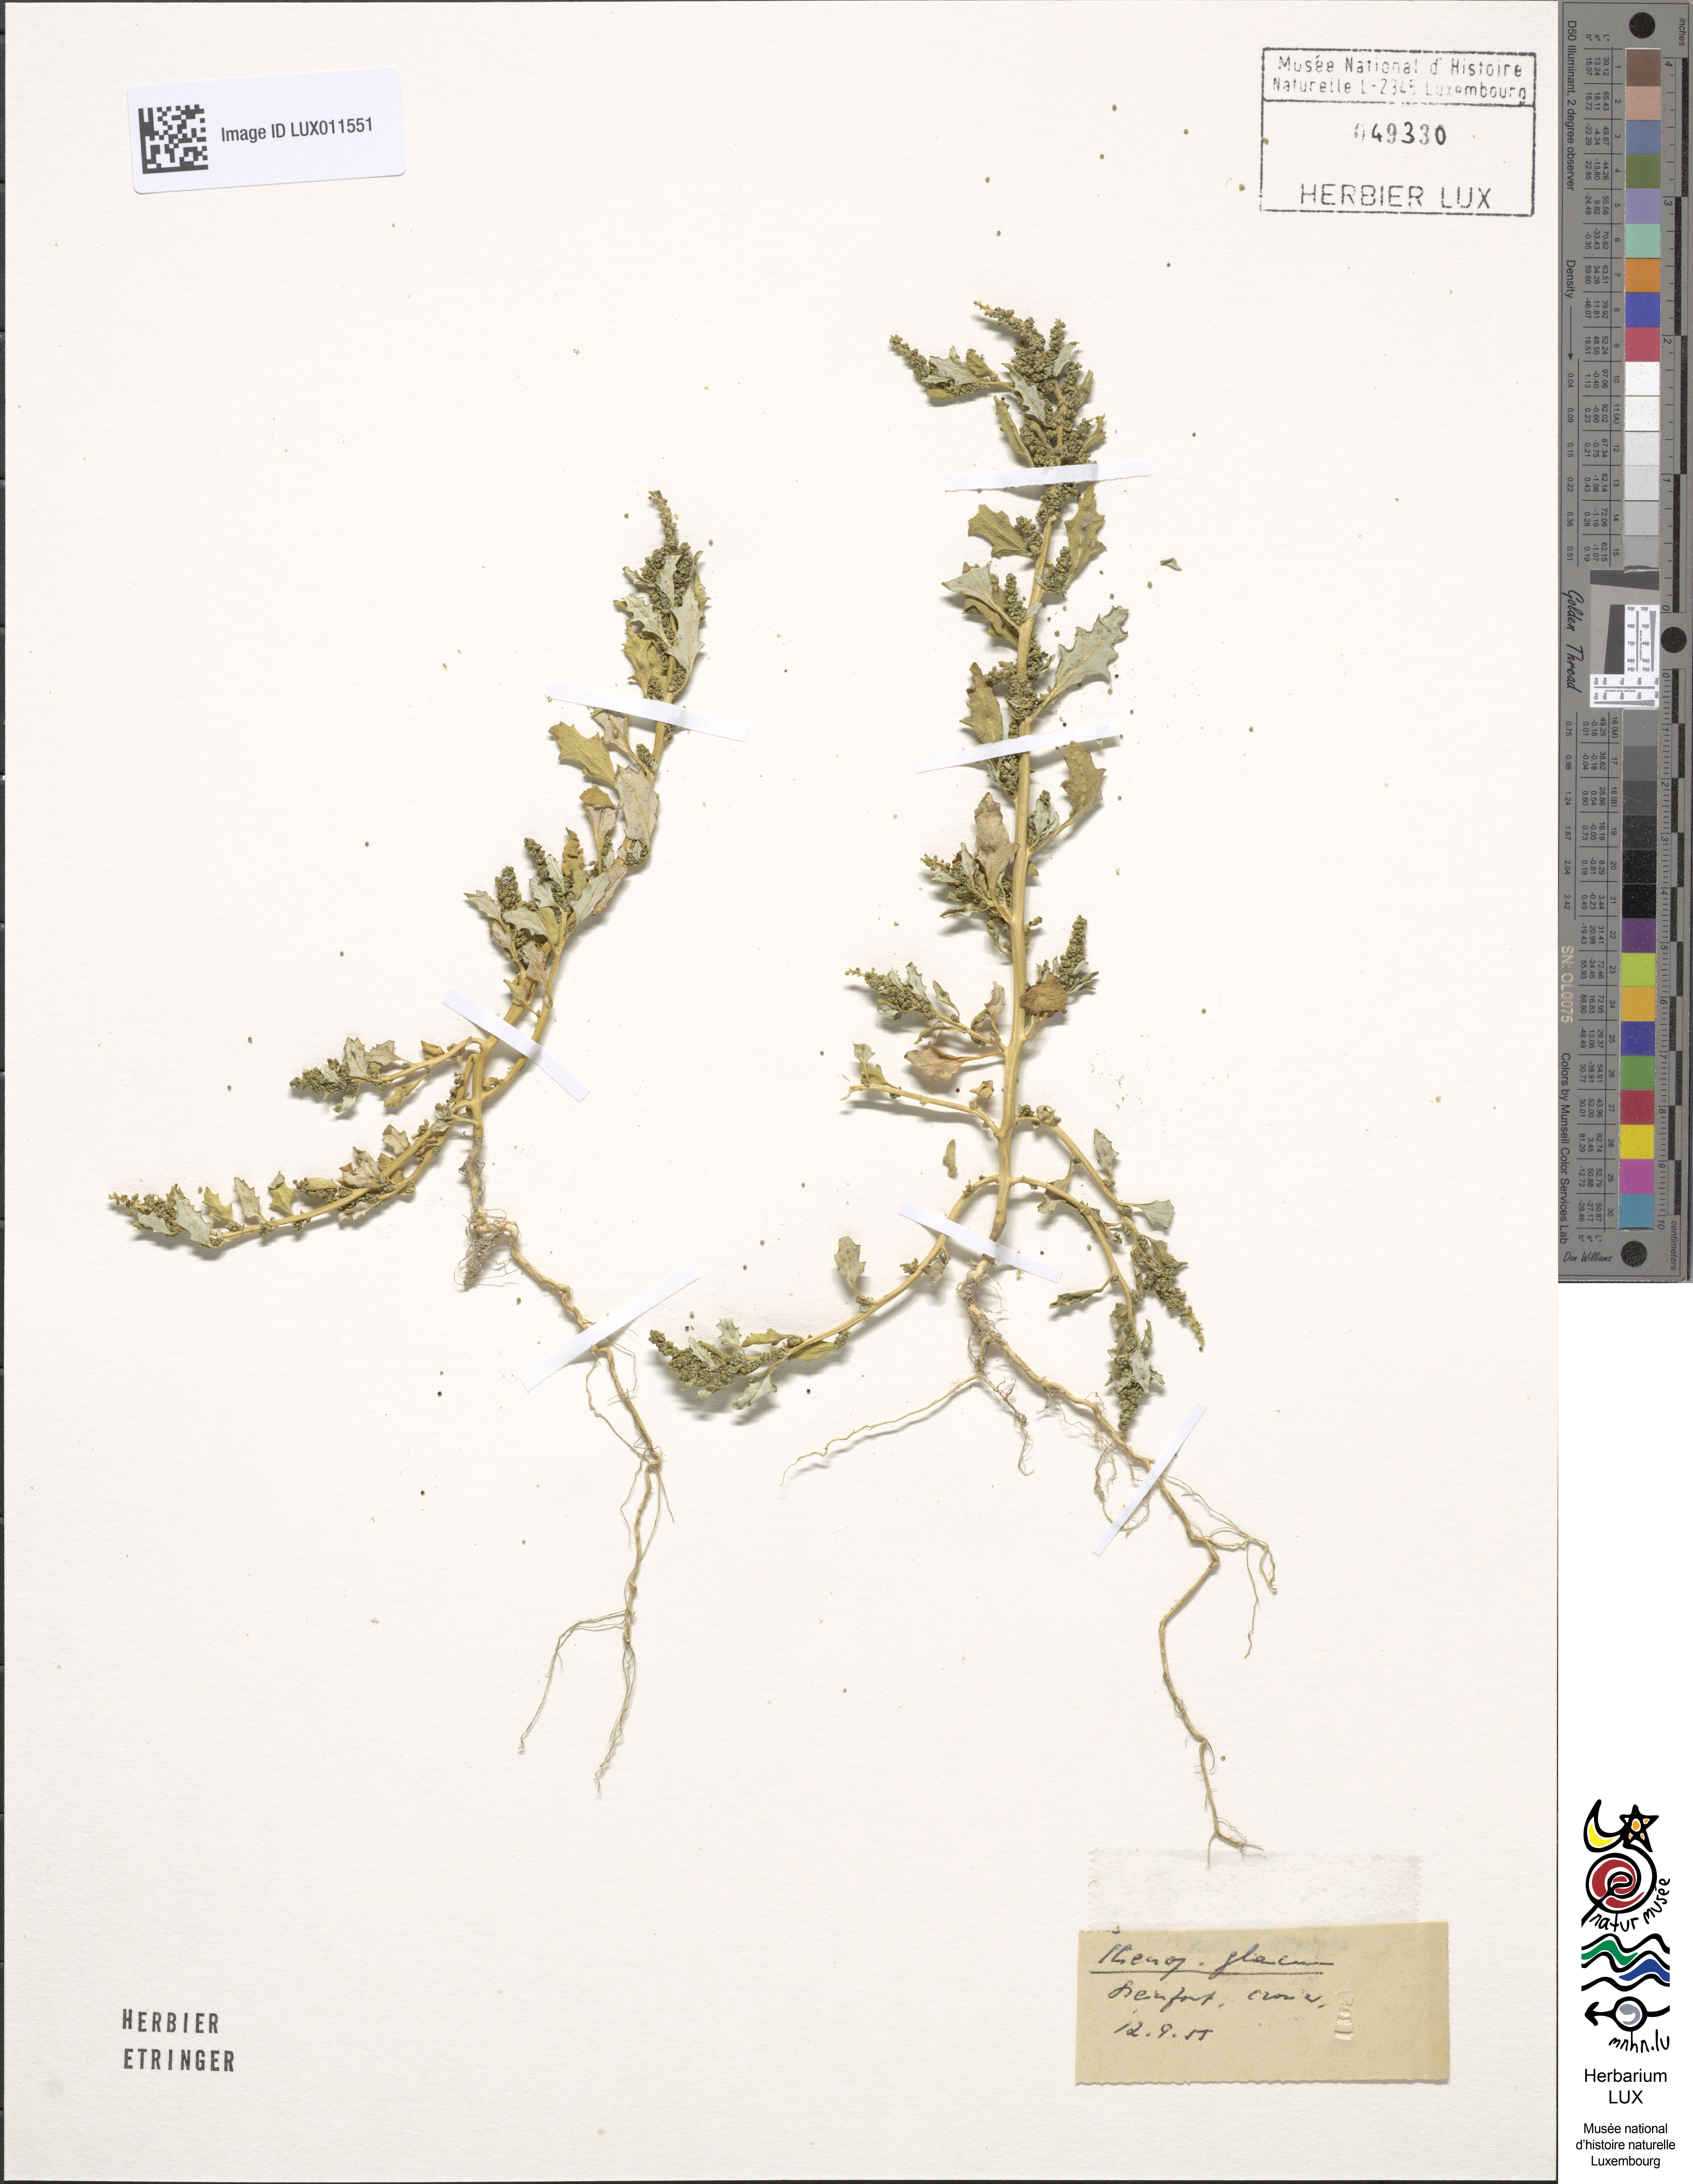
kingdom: Plantae
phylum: Tracheophyta
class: Magnoliopsida
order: Caryophyllales
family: Amaranthaceae
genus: Oxybasis
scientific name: Oxybasis glauca
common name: Glaucous goosefoot
